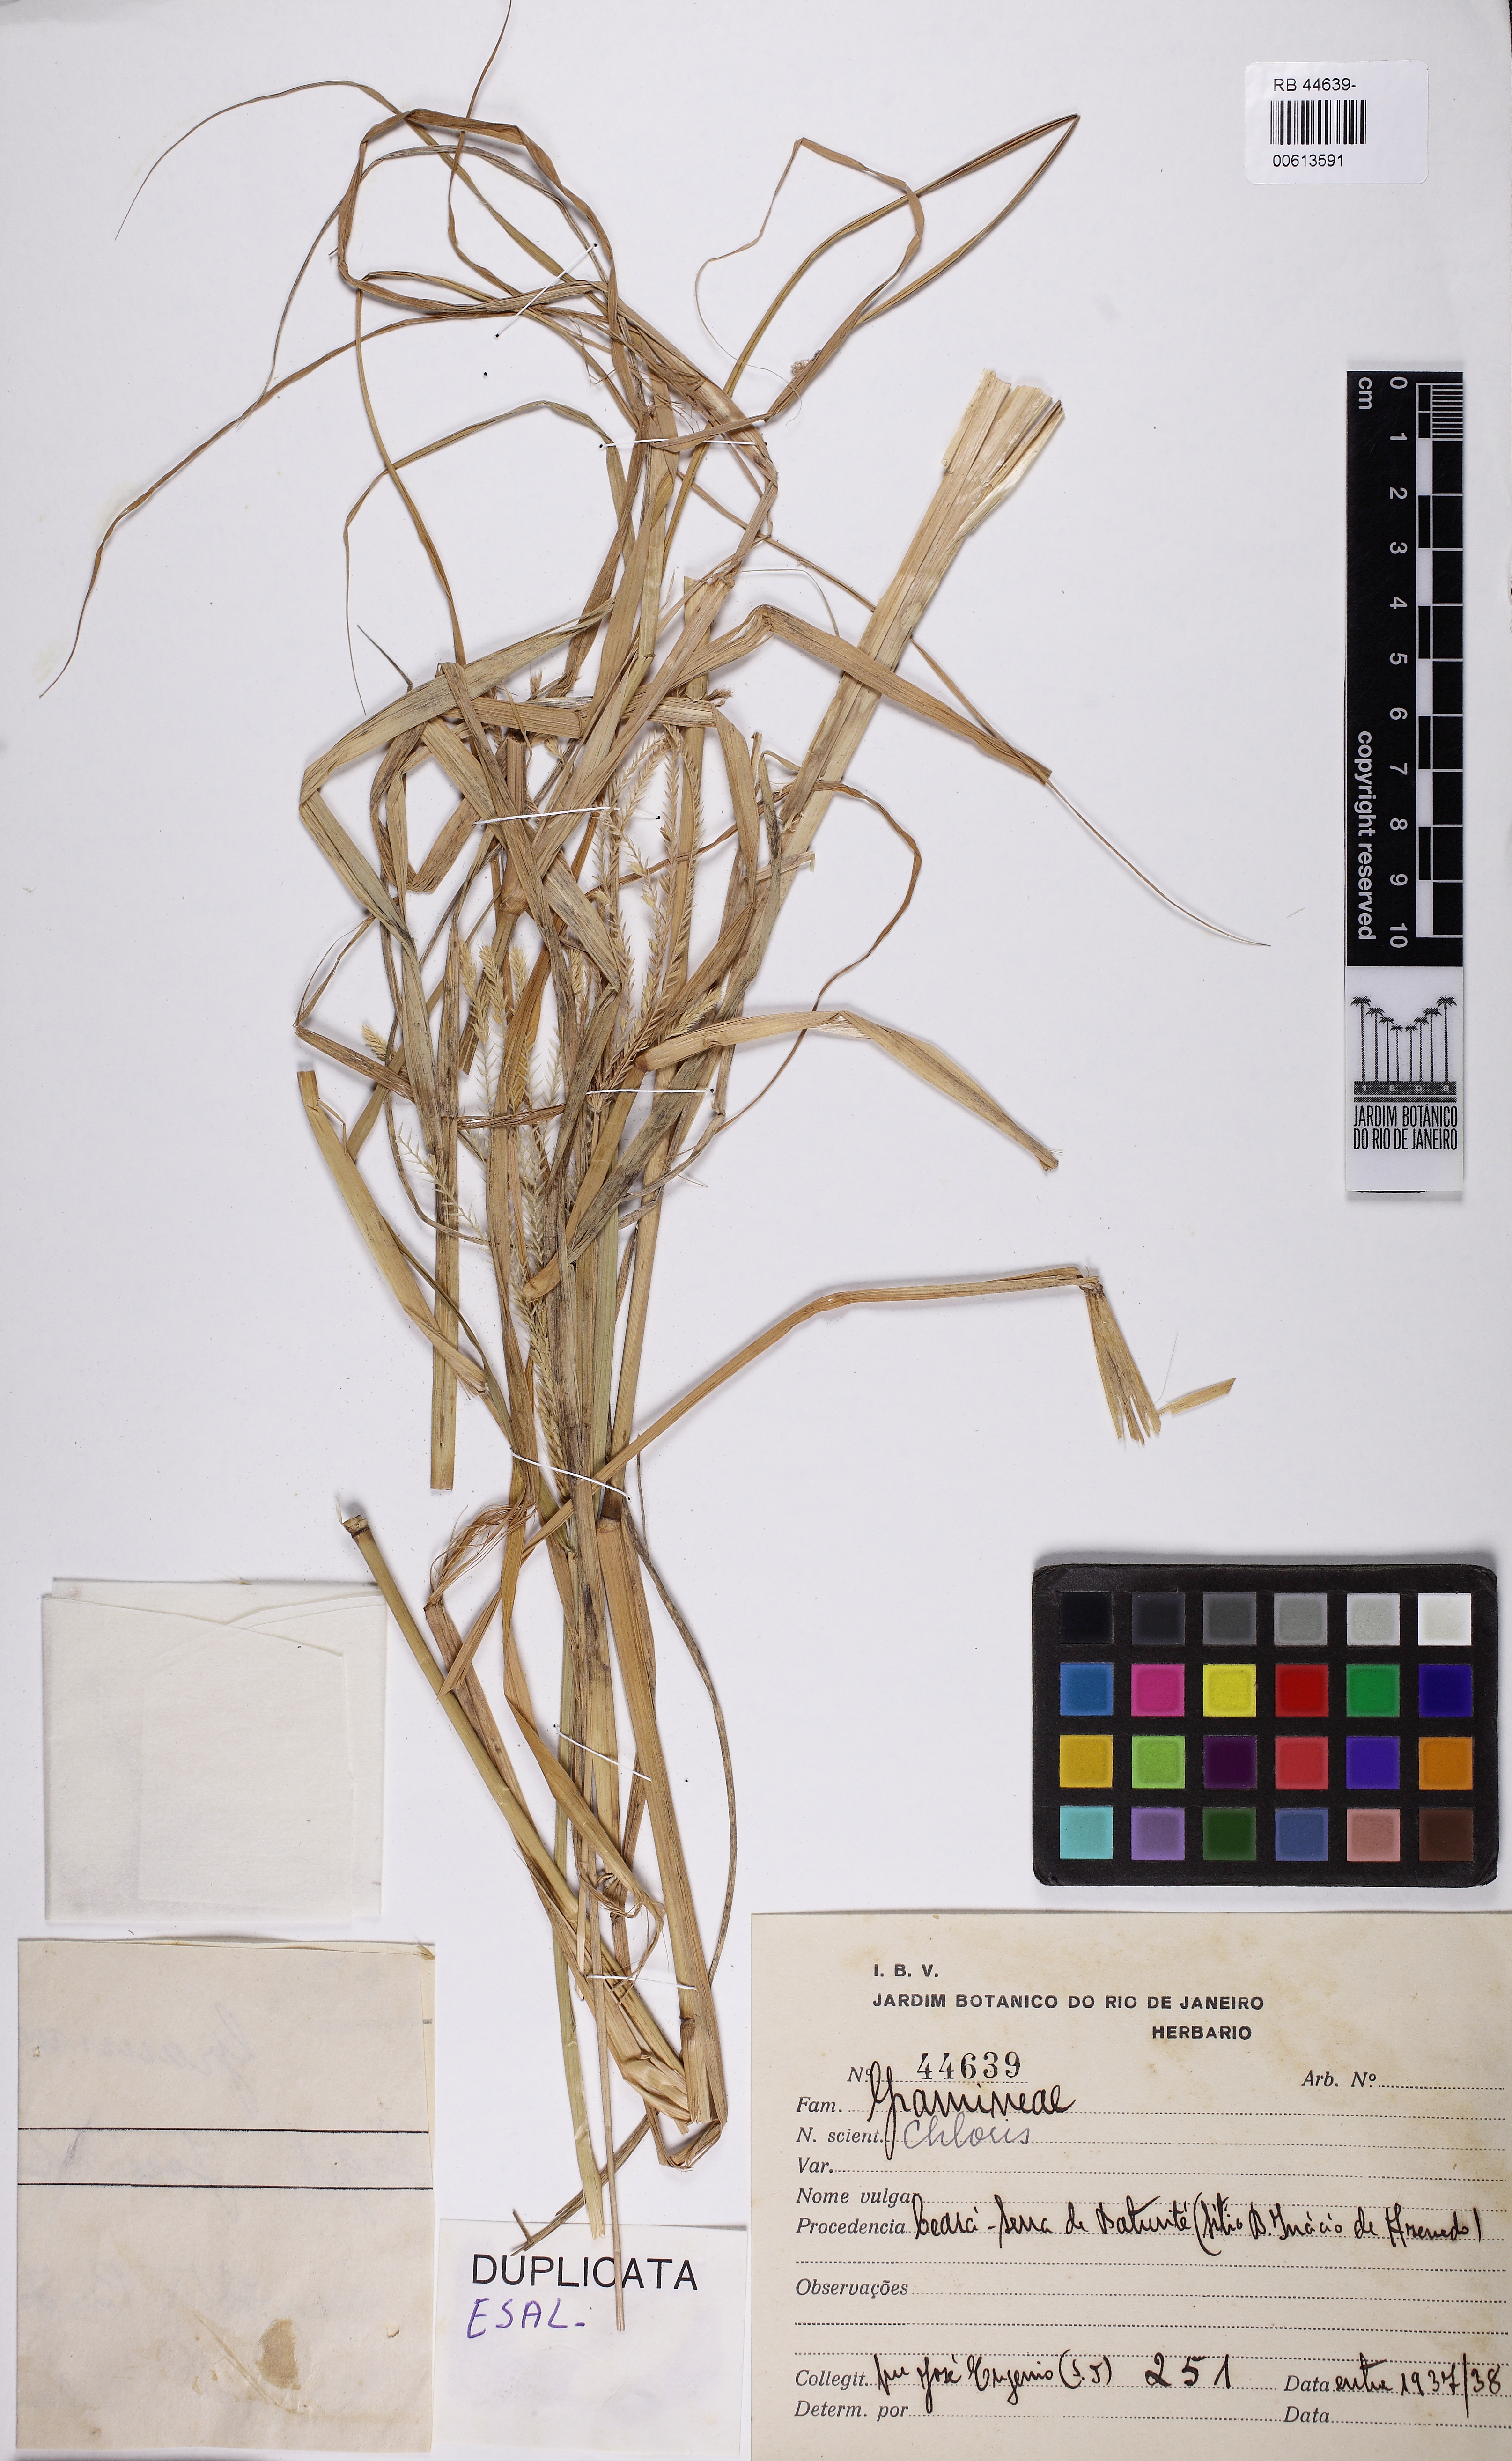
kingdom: Plantae
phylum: Tracheophyta
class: Liliopsida
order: Poales
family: Poaceae
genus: Chloris
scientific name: Chloris
